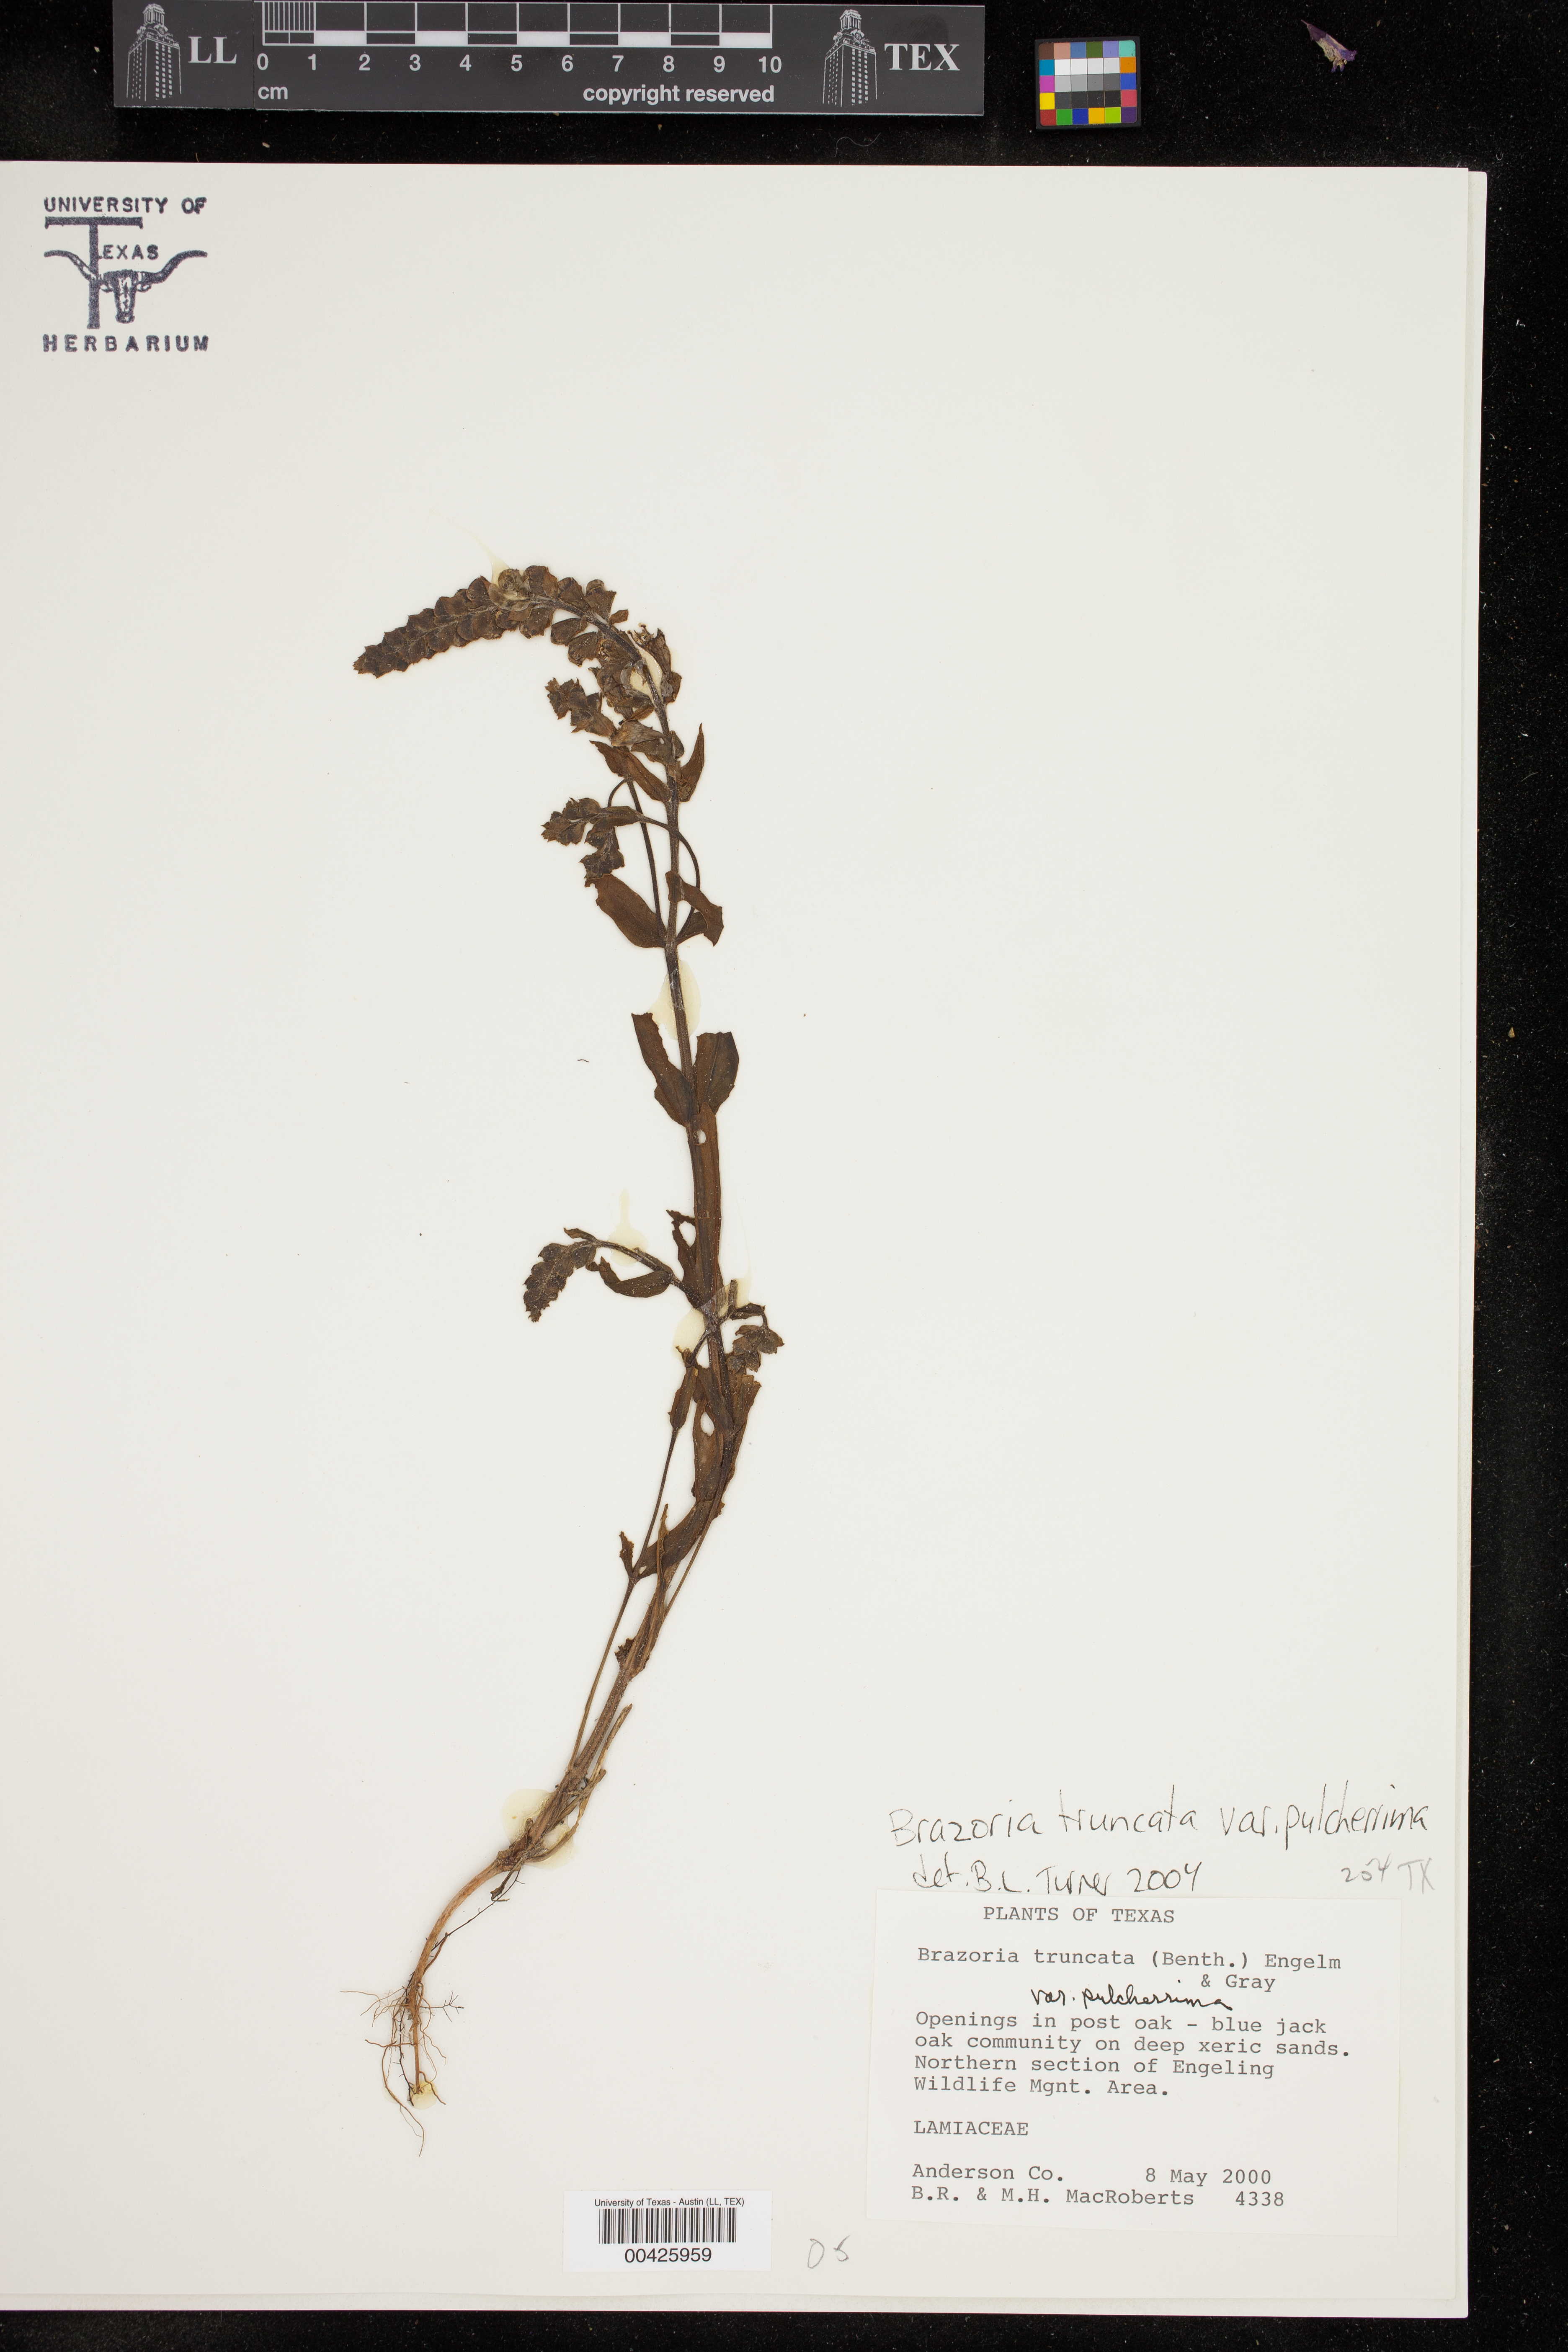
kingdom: Plantae
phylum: Tracheophyta
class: Magnoliopsida
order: Lamiales
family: Lamiaceae
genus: Brazoria
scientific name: Brazoria truncata
